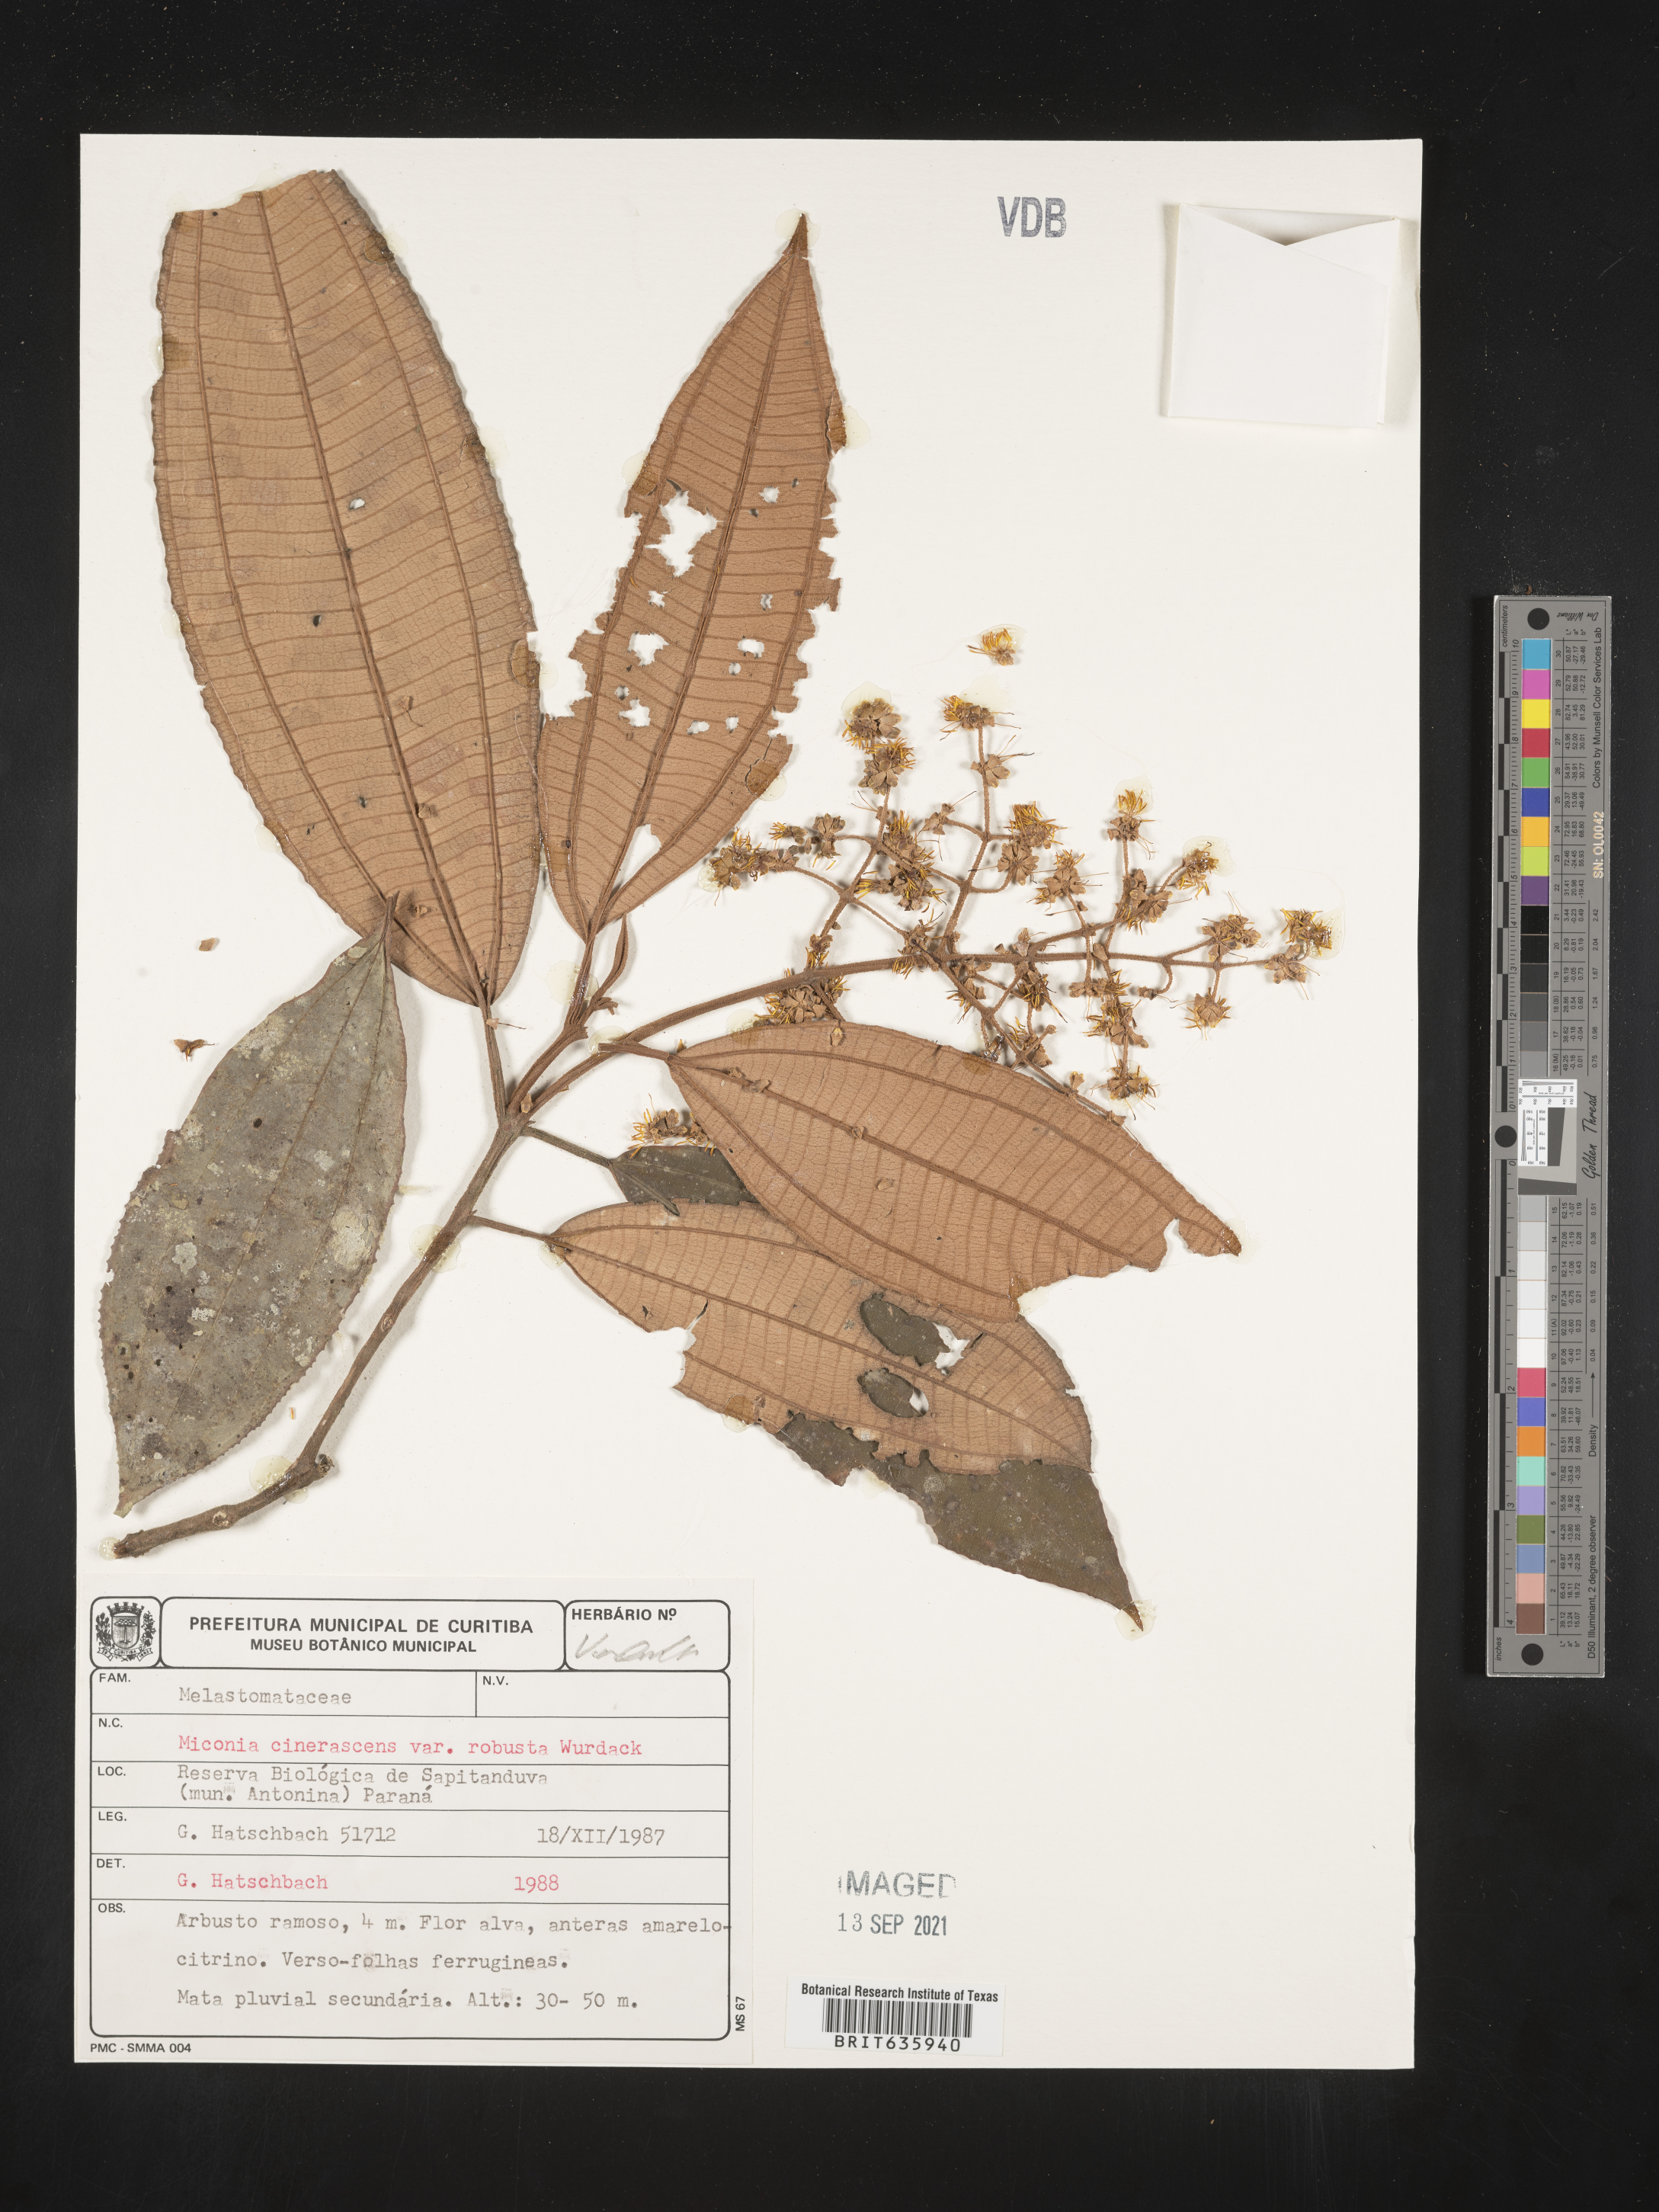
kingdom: Plantae
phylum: Tracheophyta
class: Magnoliopsida
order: Myrtales
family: Melastomataceae
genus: Miconia
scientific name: Miconia
